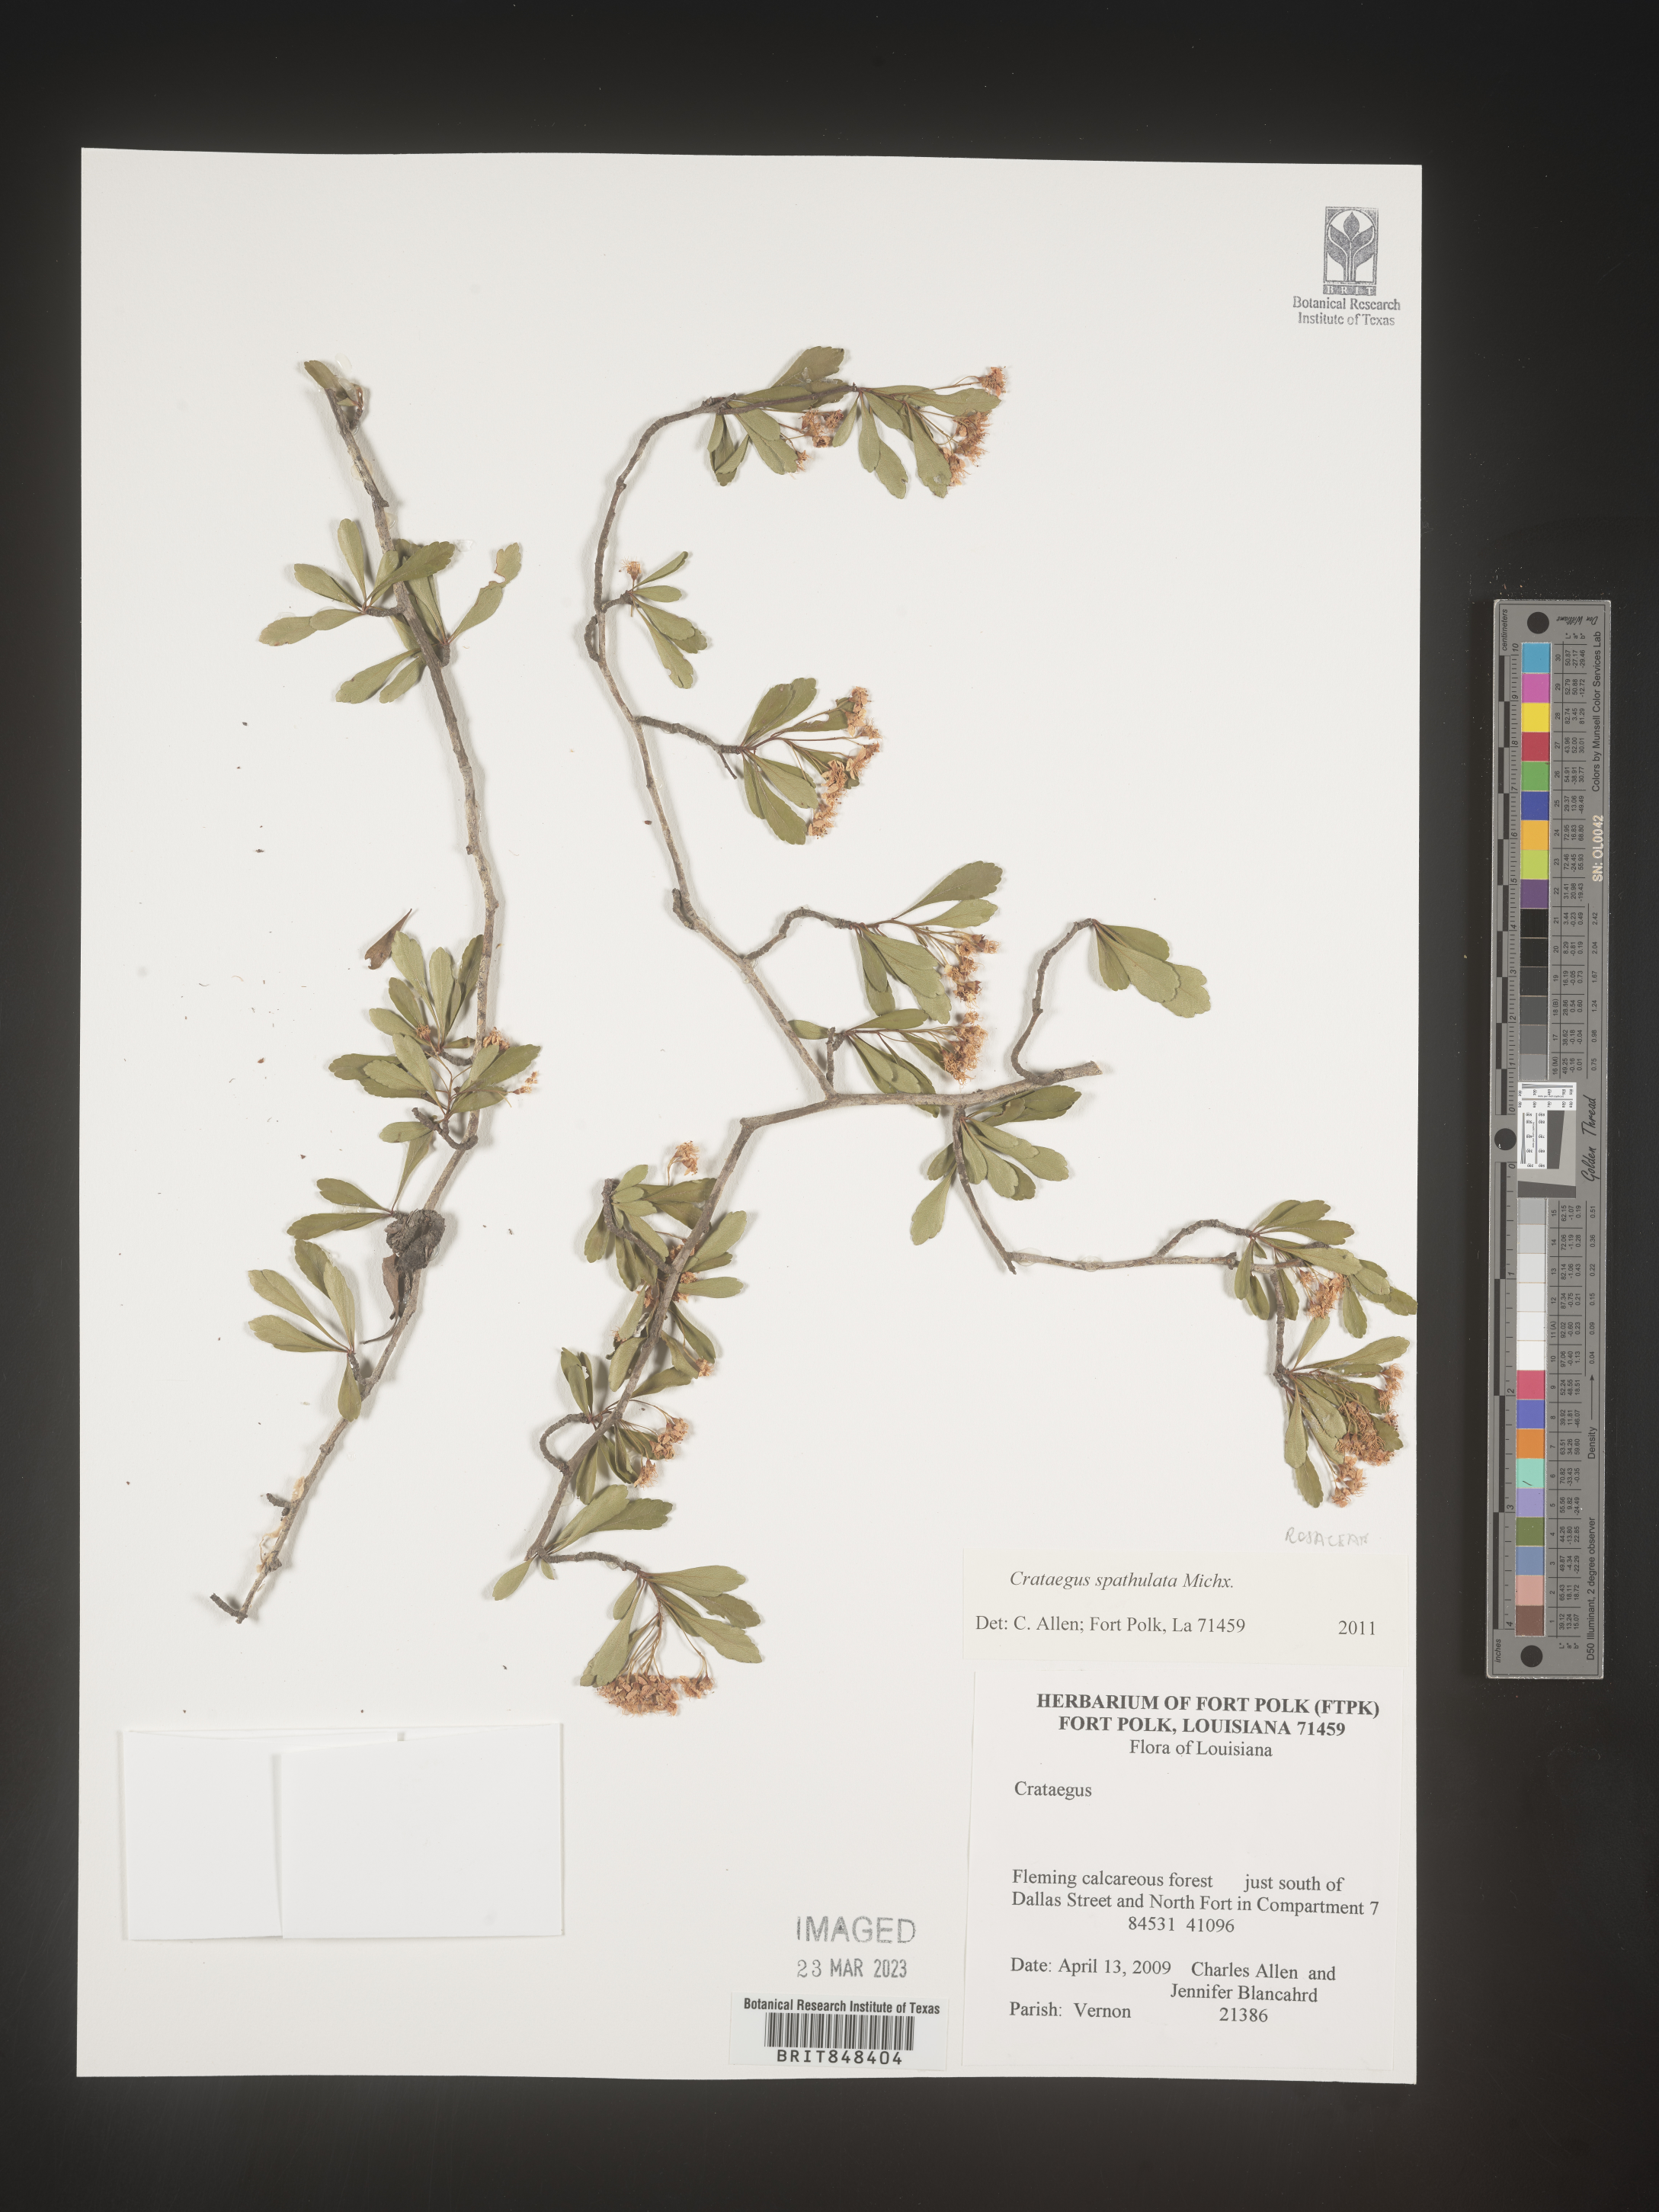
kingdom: Plantae
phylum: Tracheophyta
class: Magnoliopsida
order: Rosales
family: Rosaceae
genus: Crataegus
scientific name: Crataegus spathulata
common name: Littlehip hawthorn
